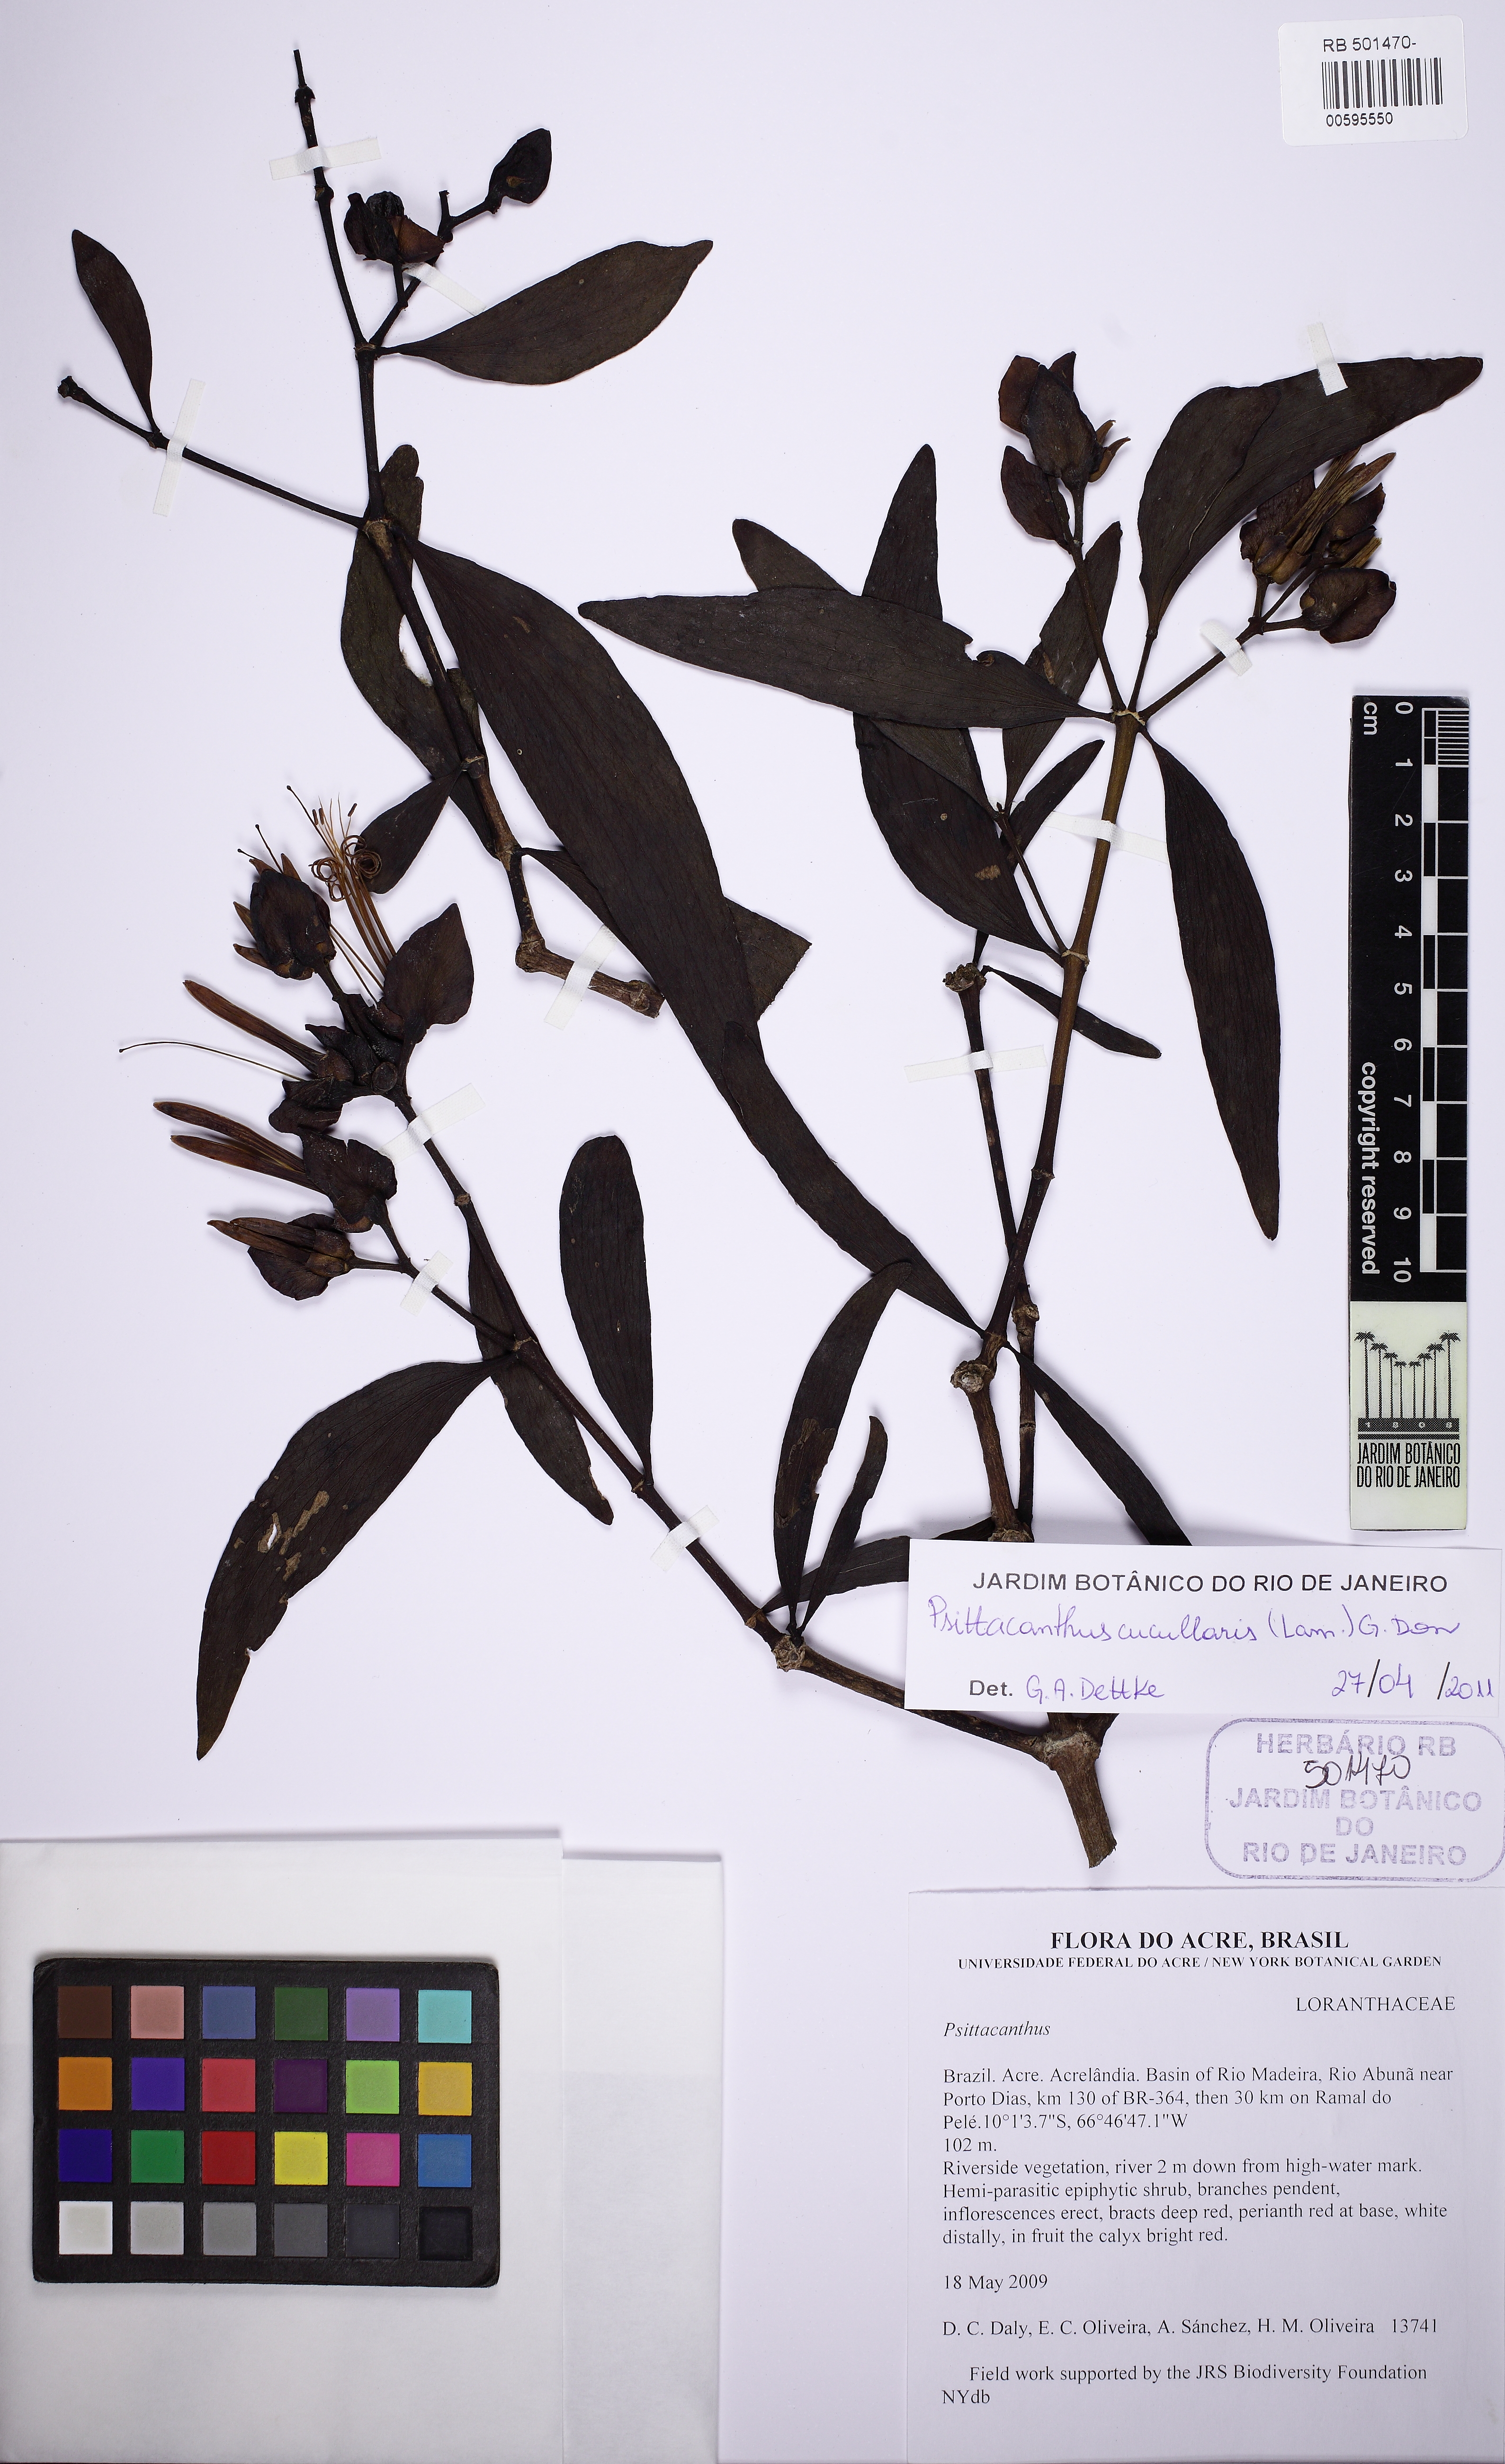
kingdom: Plantae
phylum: Tracheophyta
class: Magnoliopsida
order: Santalales
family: Loranthaceae
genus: Psittacanthus
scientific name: Psittacanthus cucullaris
